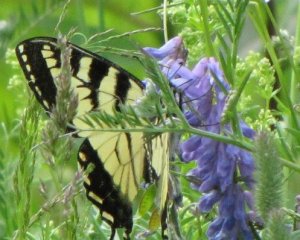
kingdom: Animalia
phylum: Arthropoda
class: Insecta
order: Lepidoptera
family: Papilionidae
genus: Pterourus
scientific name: Pterourus canadensis
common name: Canadian Tiger Swallowtail
